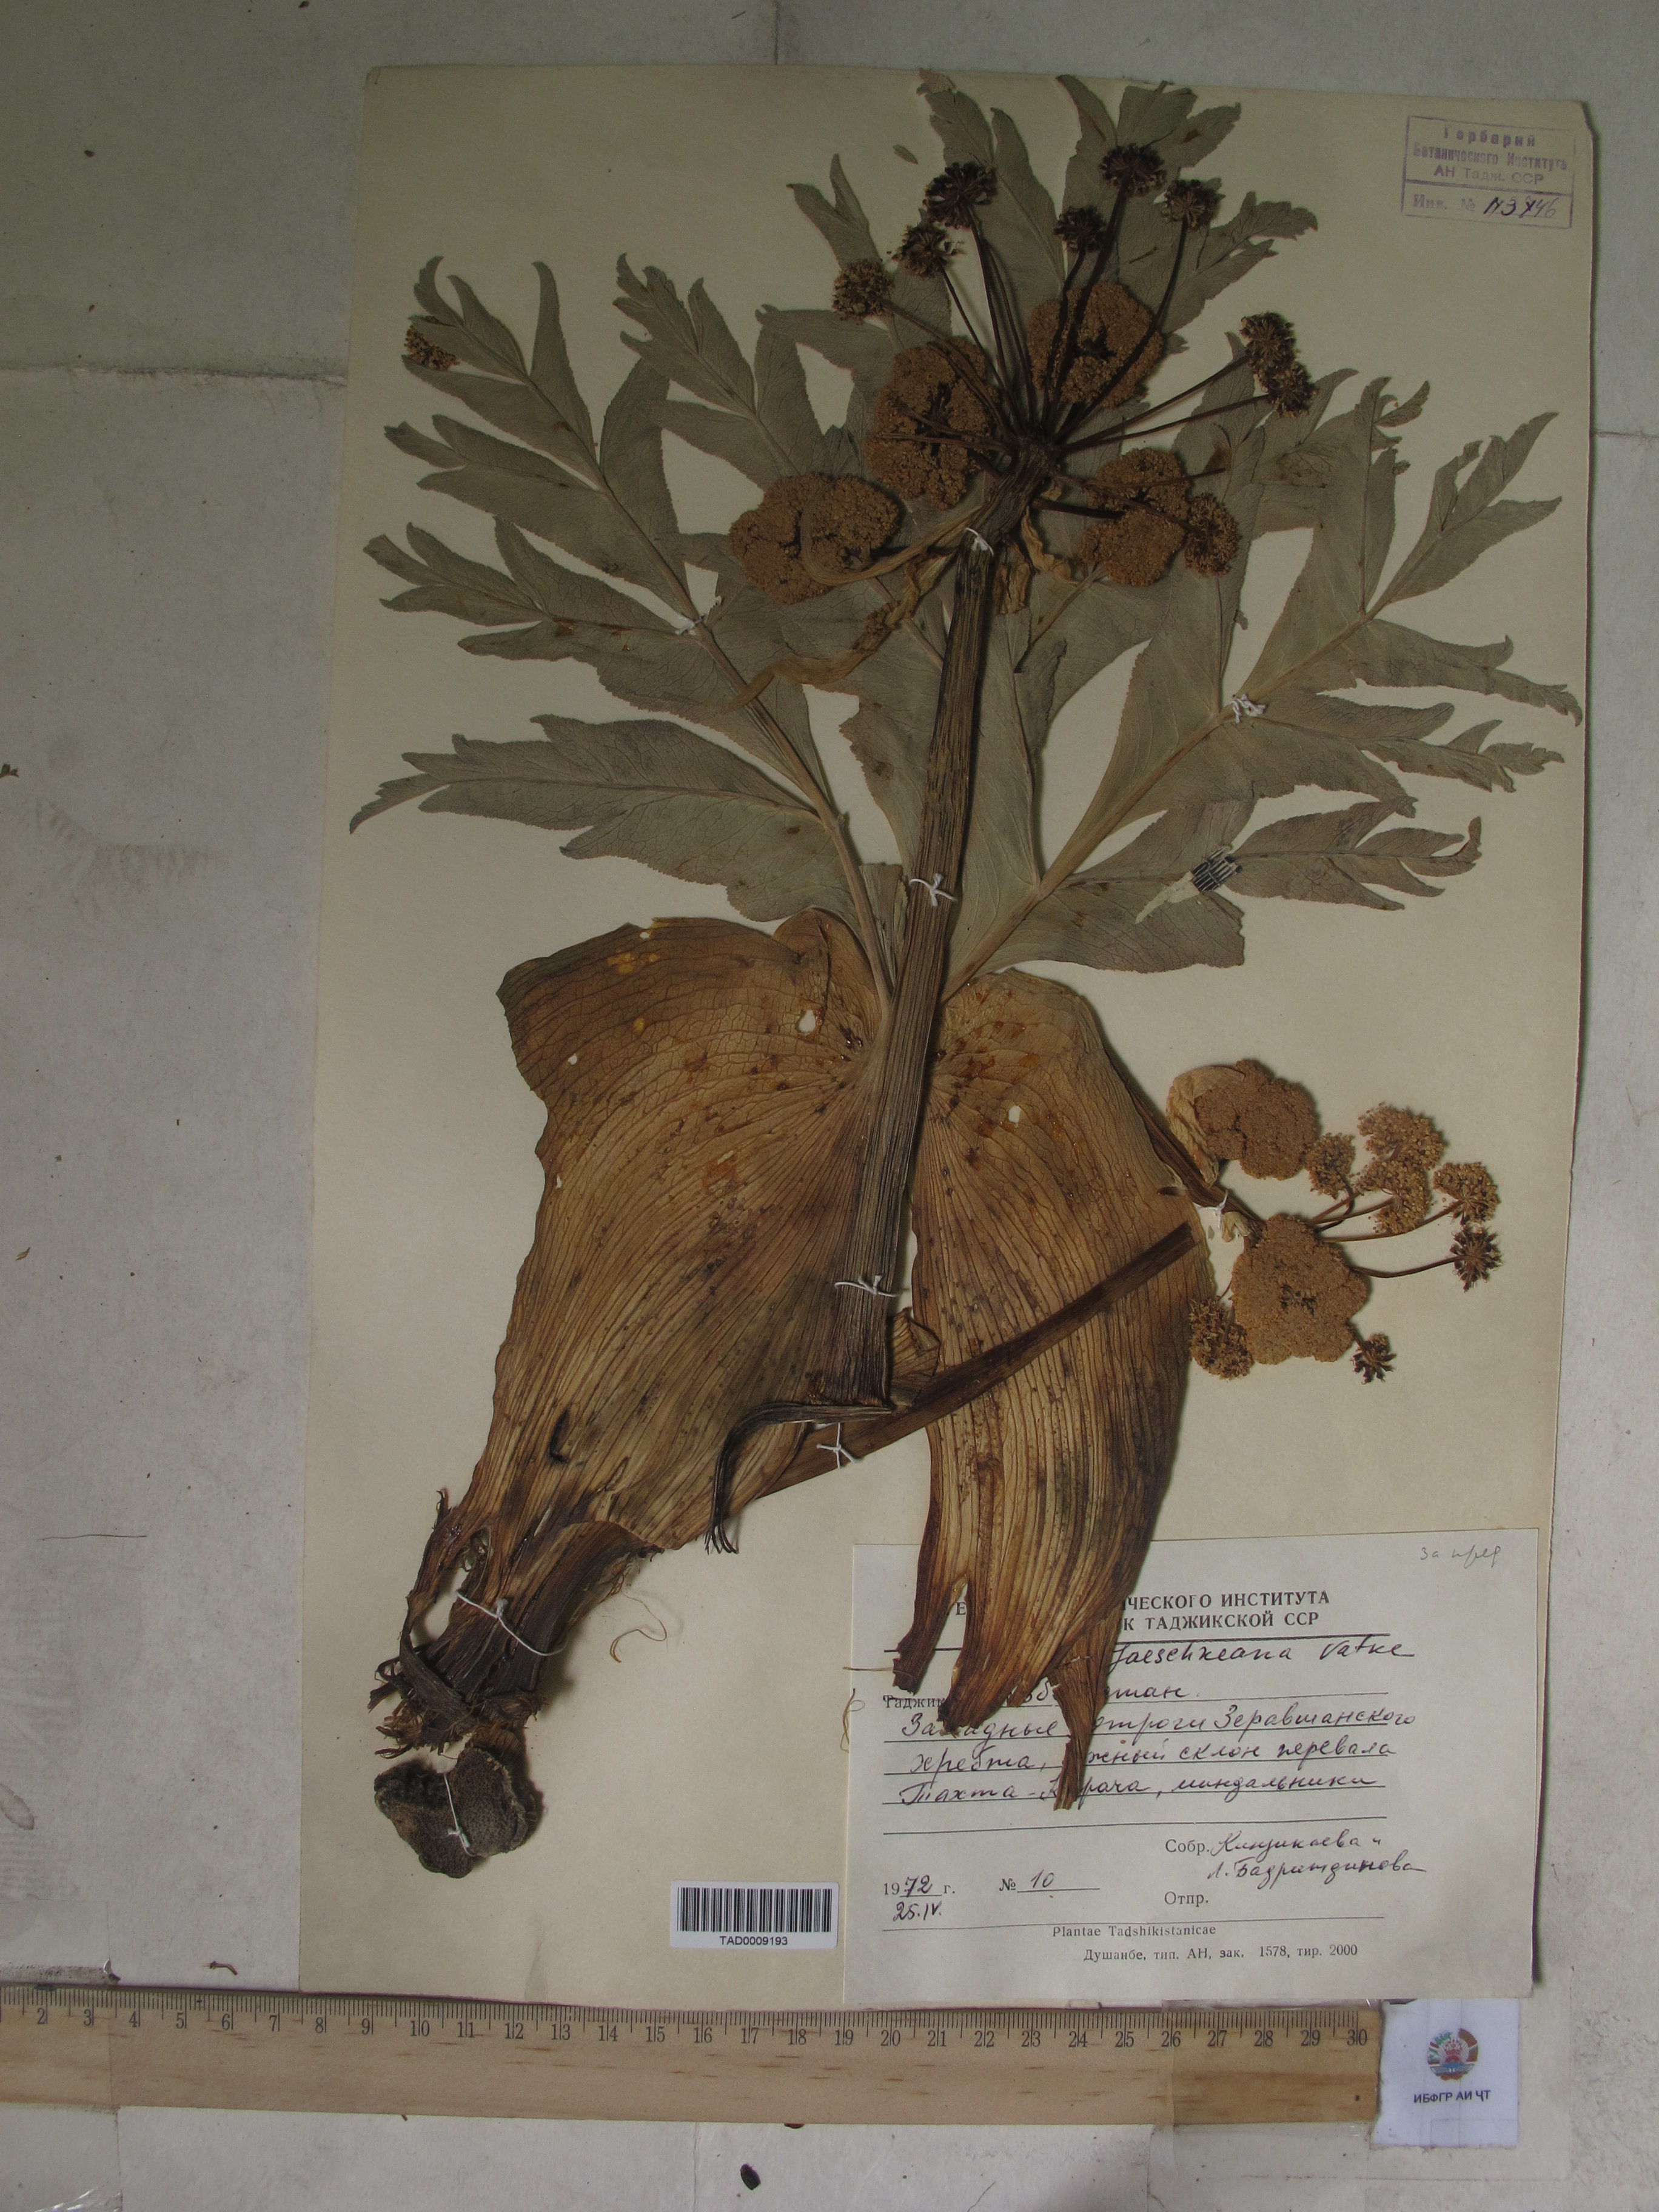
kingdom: Plantae
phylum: Tracheophyta
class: Magnoliopsida
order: Apiales
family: Apiaceae
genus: Ferula
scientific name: Ferula jaeschkeana
